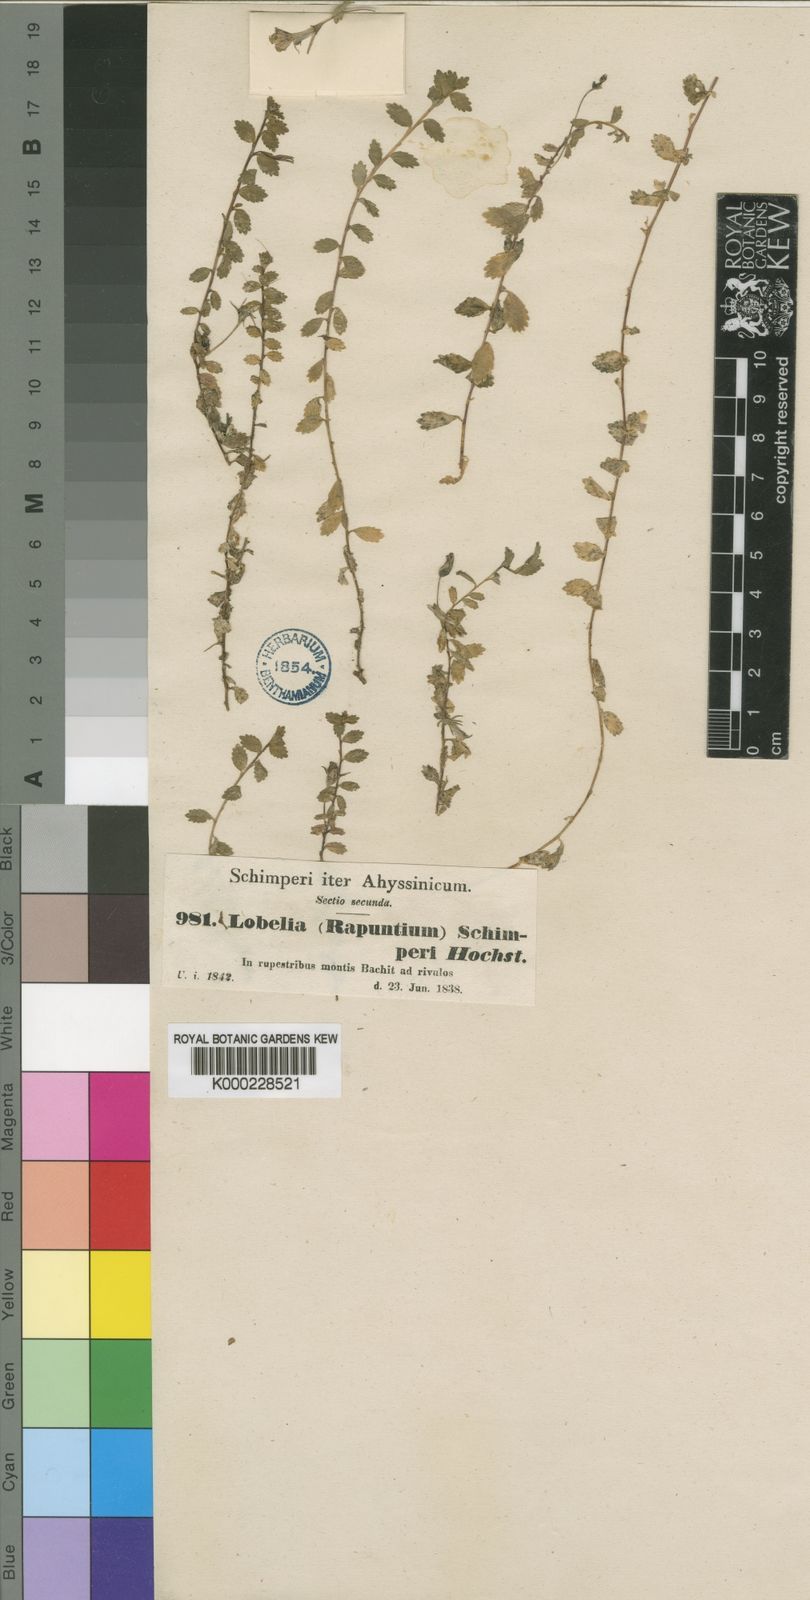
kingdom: Plantae
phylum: Tracheophyta
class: Magnoliopsida
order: Asterales
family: Campanulaceae
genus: Lobelia
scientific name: Lobelia
